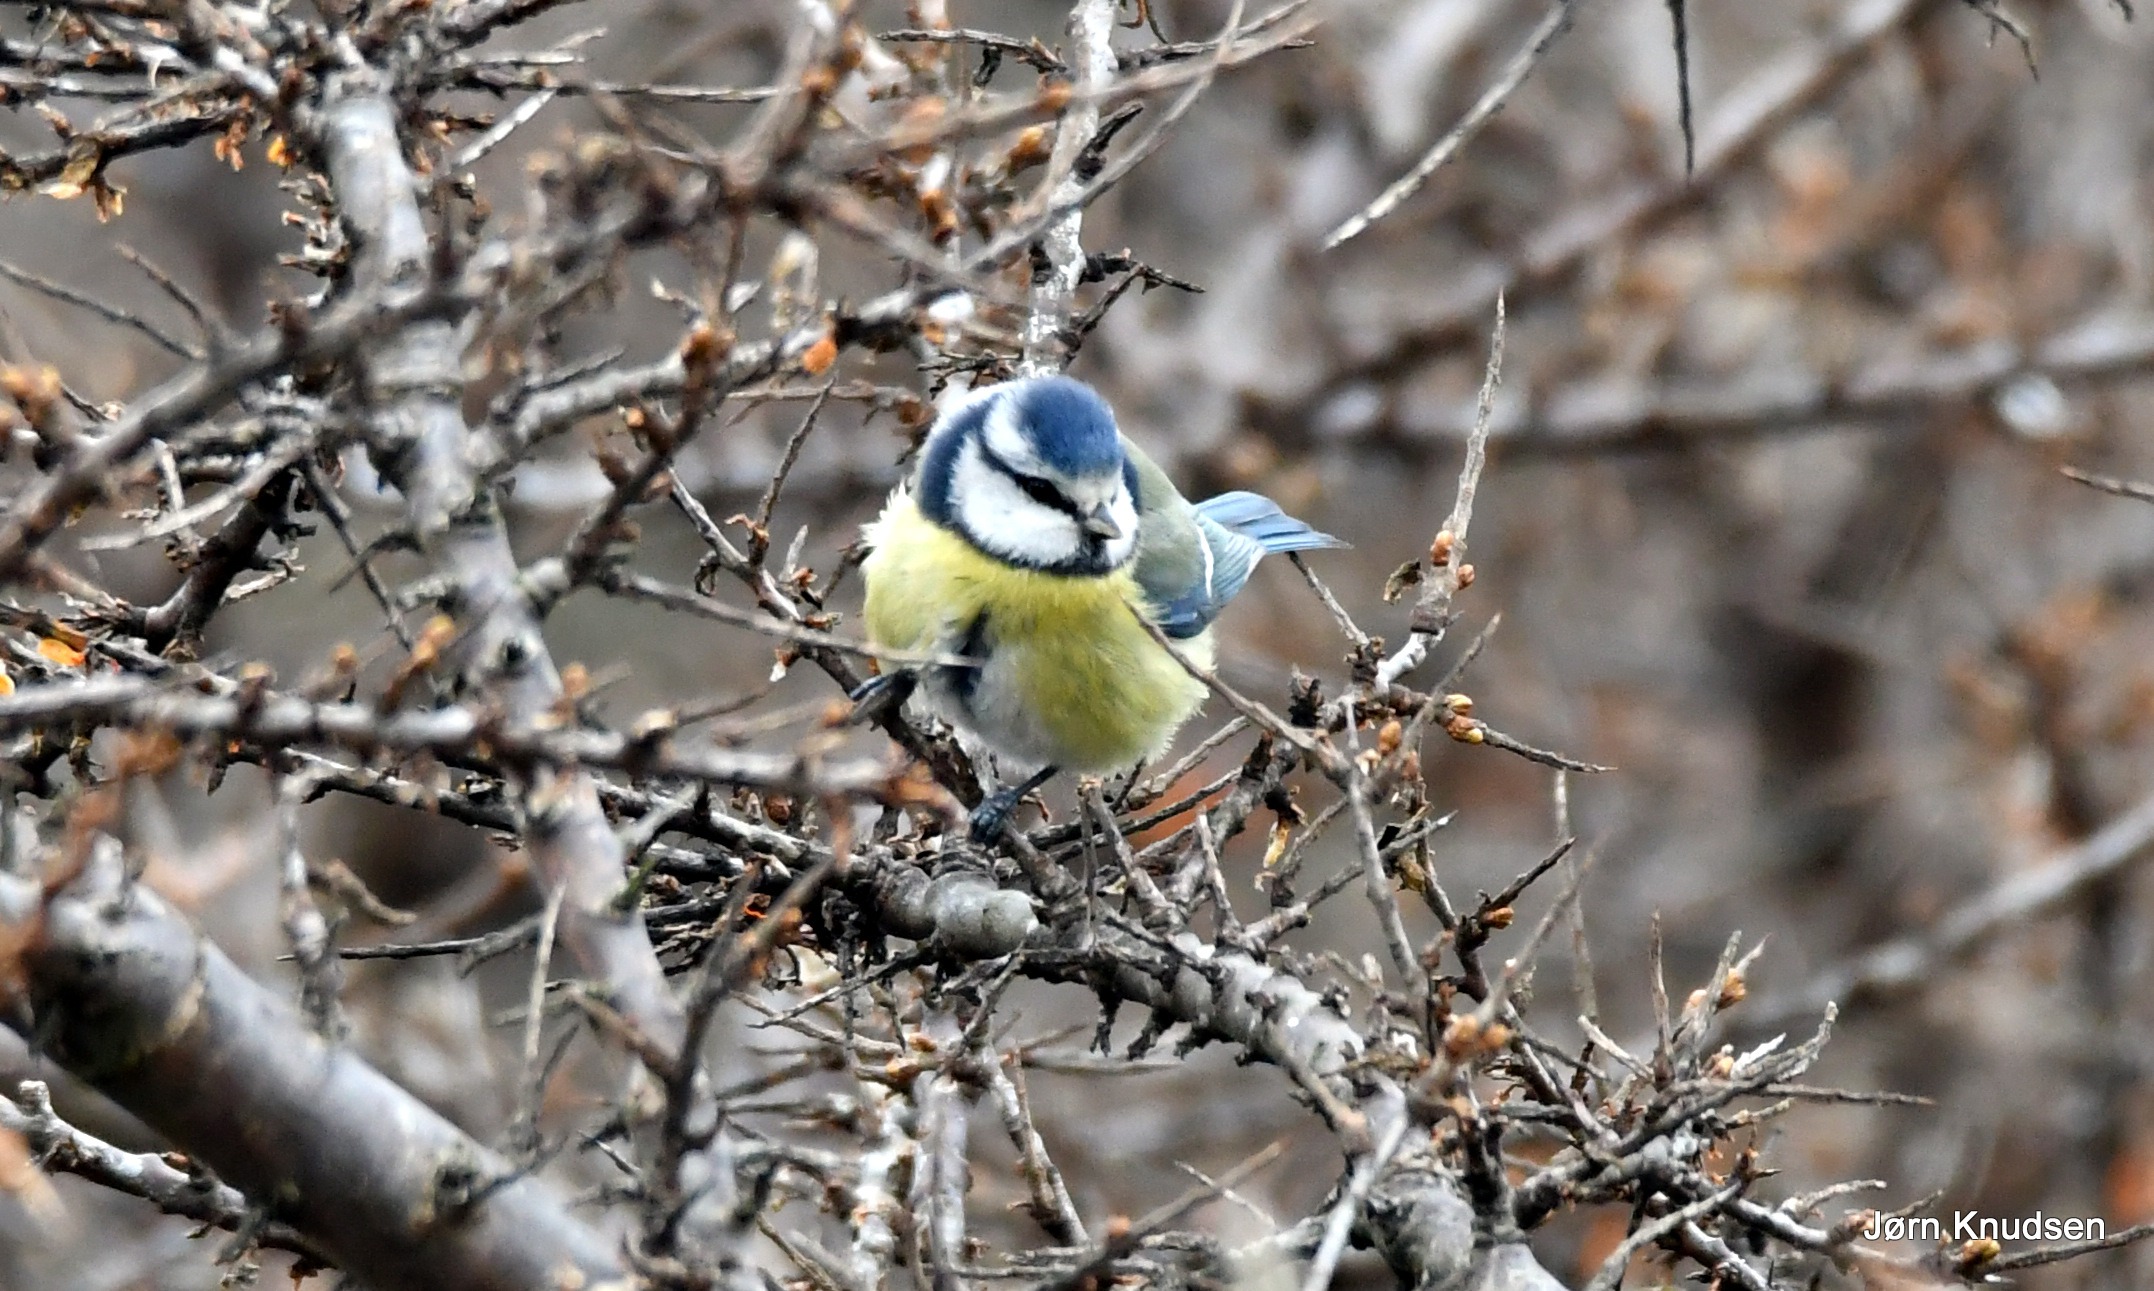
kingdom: Animalia
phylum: Chordata
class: Aves
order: Passeriformes
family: Paridae
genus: Cyanistes
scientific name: Cyanistes caeruleus
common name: Blåmejse
